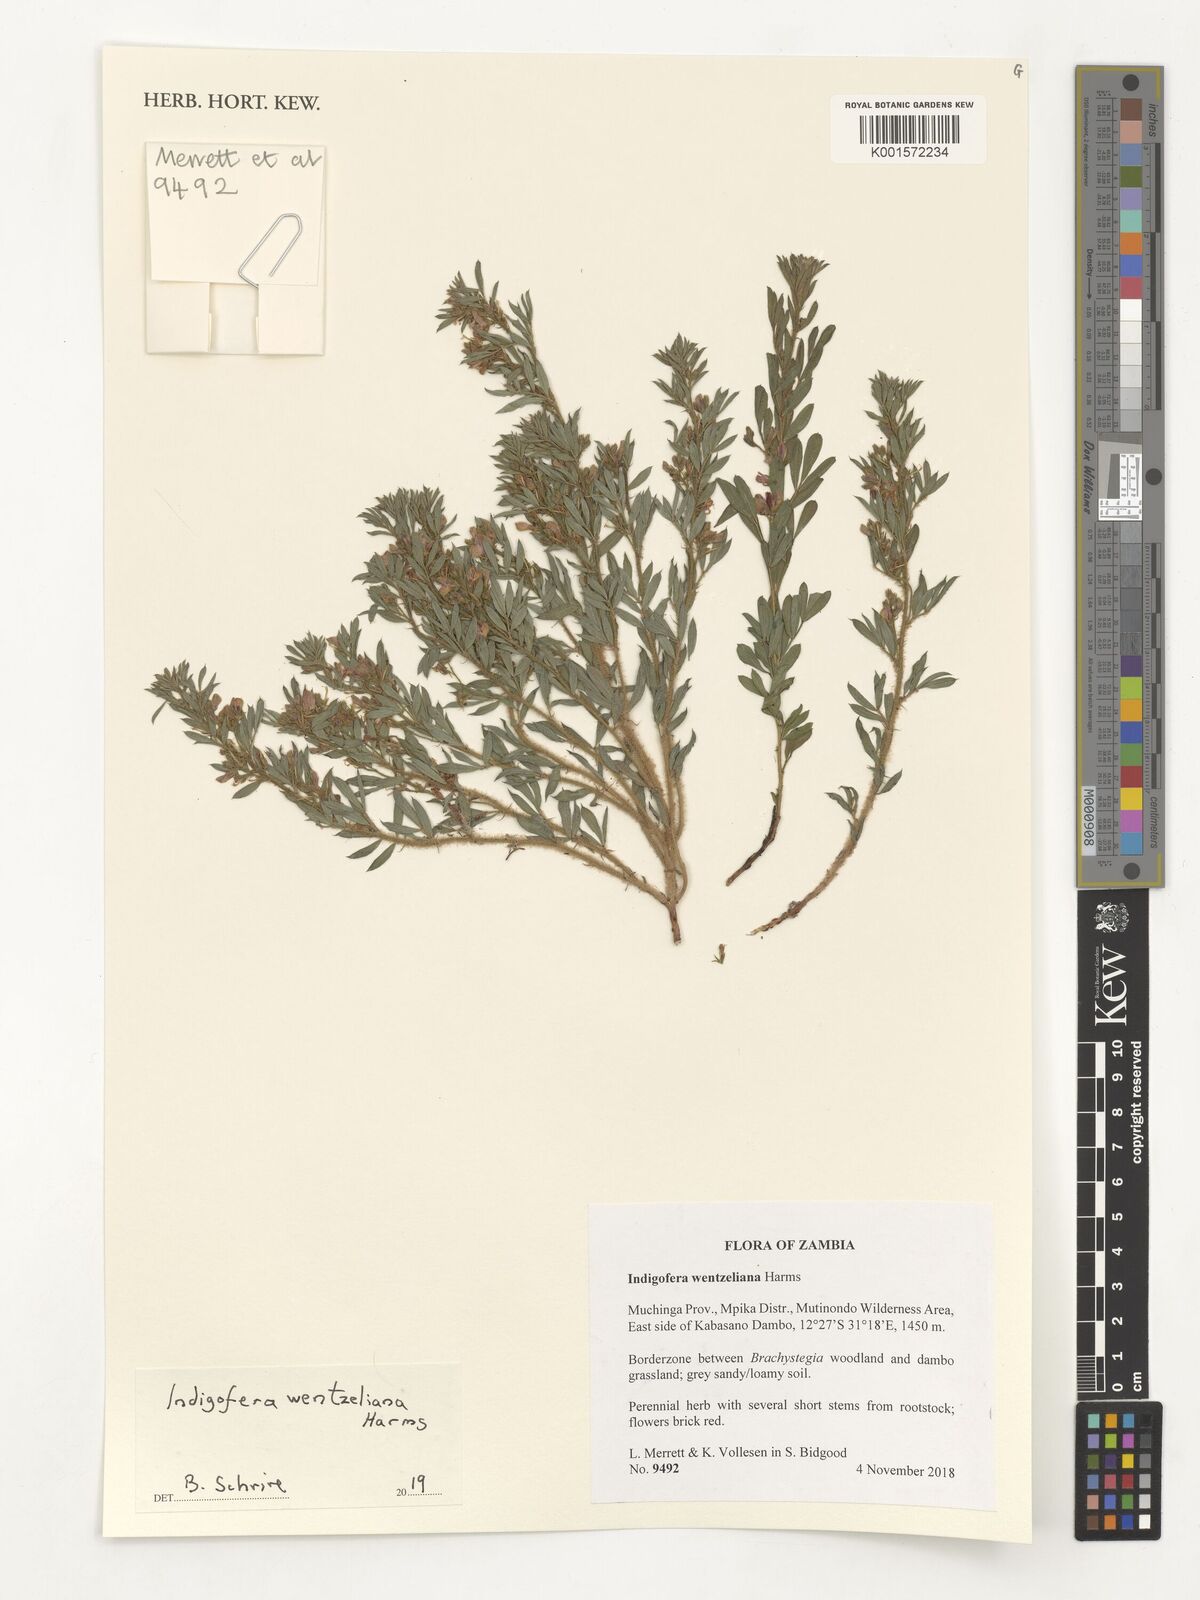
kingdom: Plantae
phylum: Tracheophyta
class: Magnoliopsida
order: Fabales
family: Fabaceae
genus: Indigofera
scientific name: Indigofera wentzeliana
